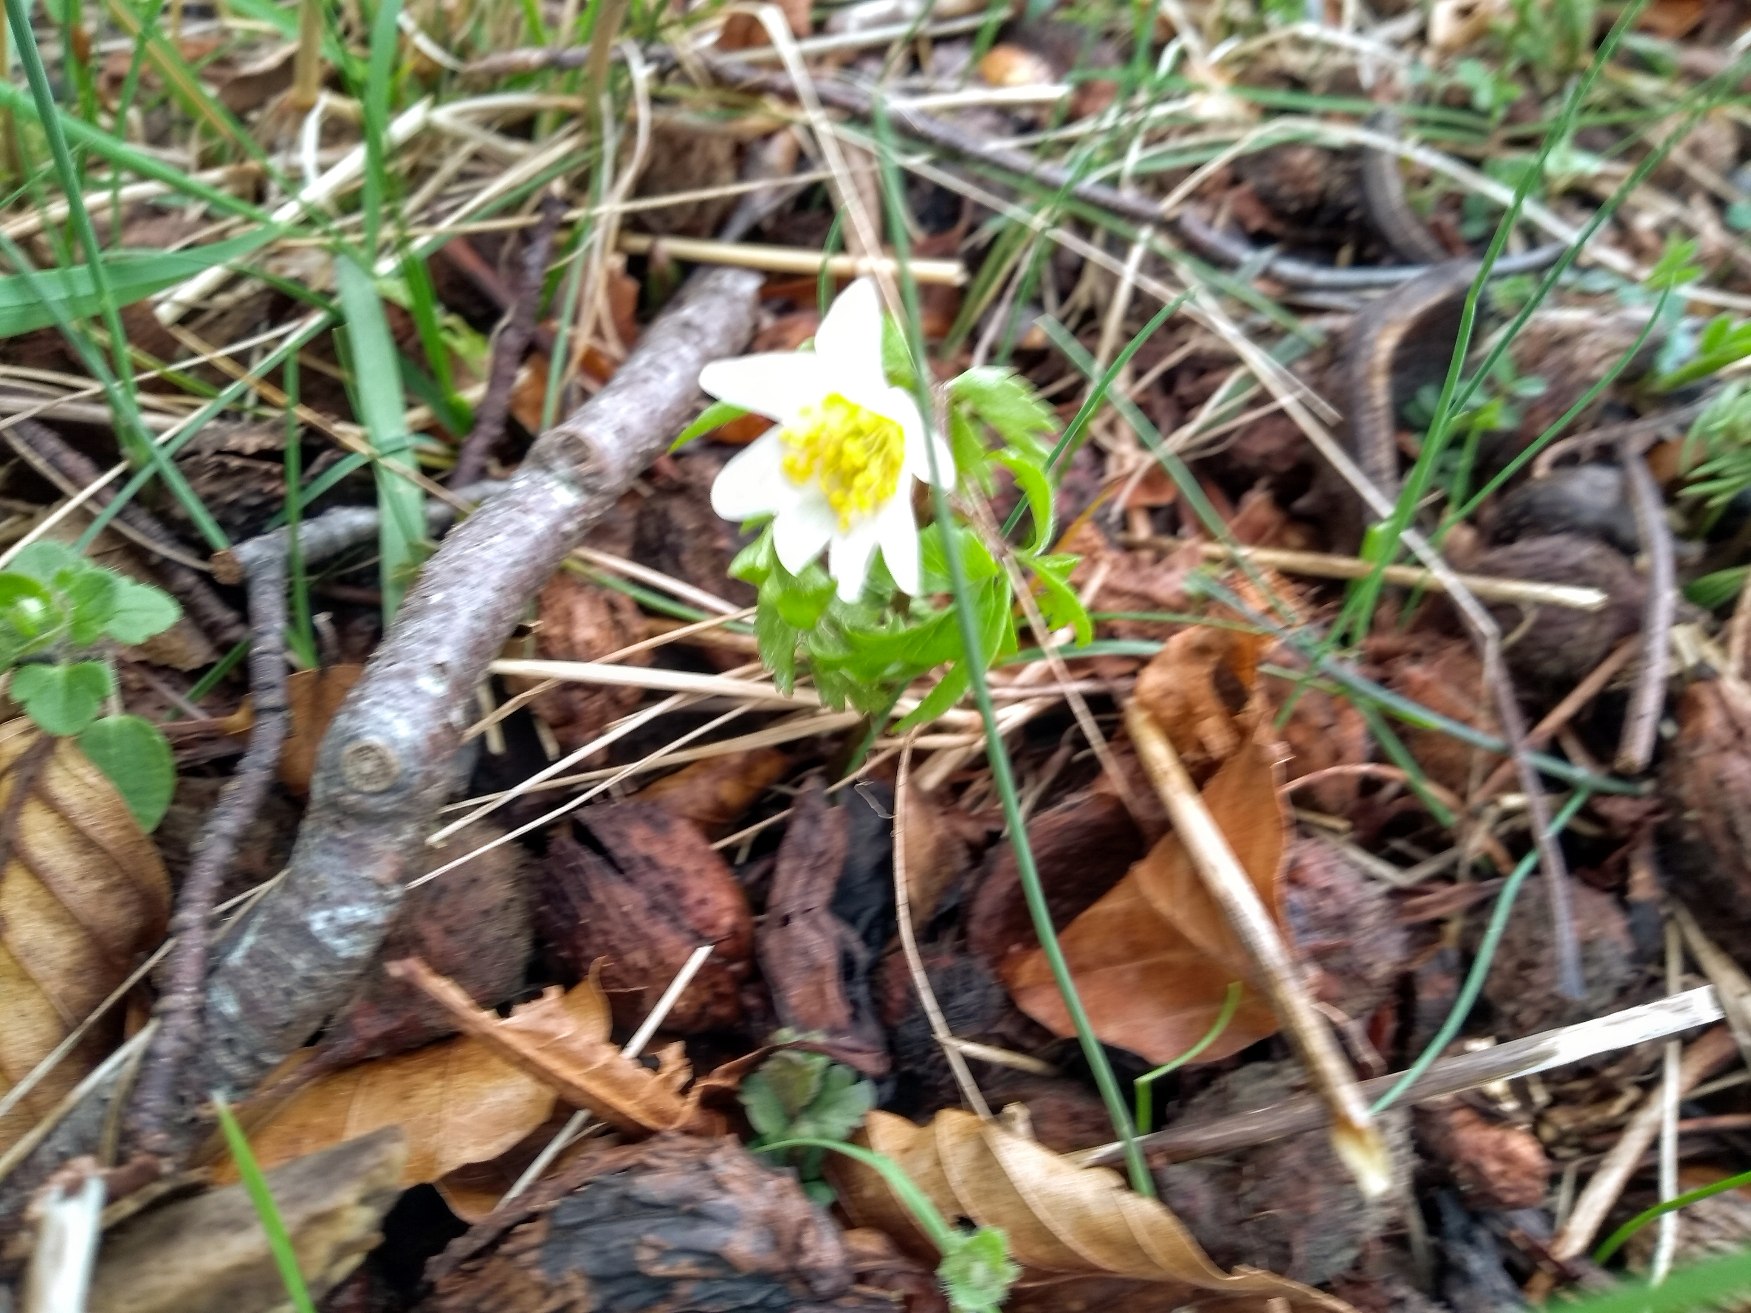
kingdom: Plantae
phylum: Tracheophyta
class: Magnoliopsida
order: Ranunculales
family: Ranunculaceae
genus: Anemone
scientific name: Anemone nemorosa
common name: Hvid anemone
